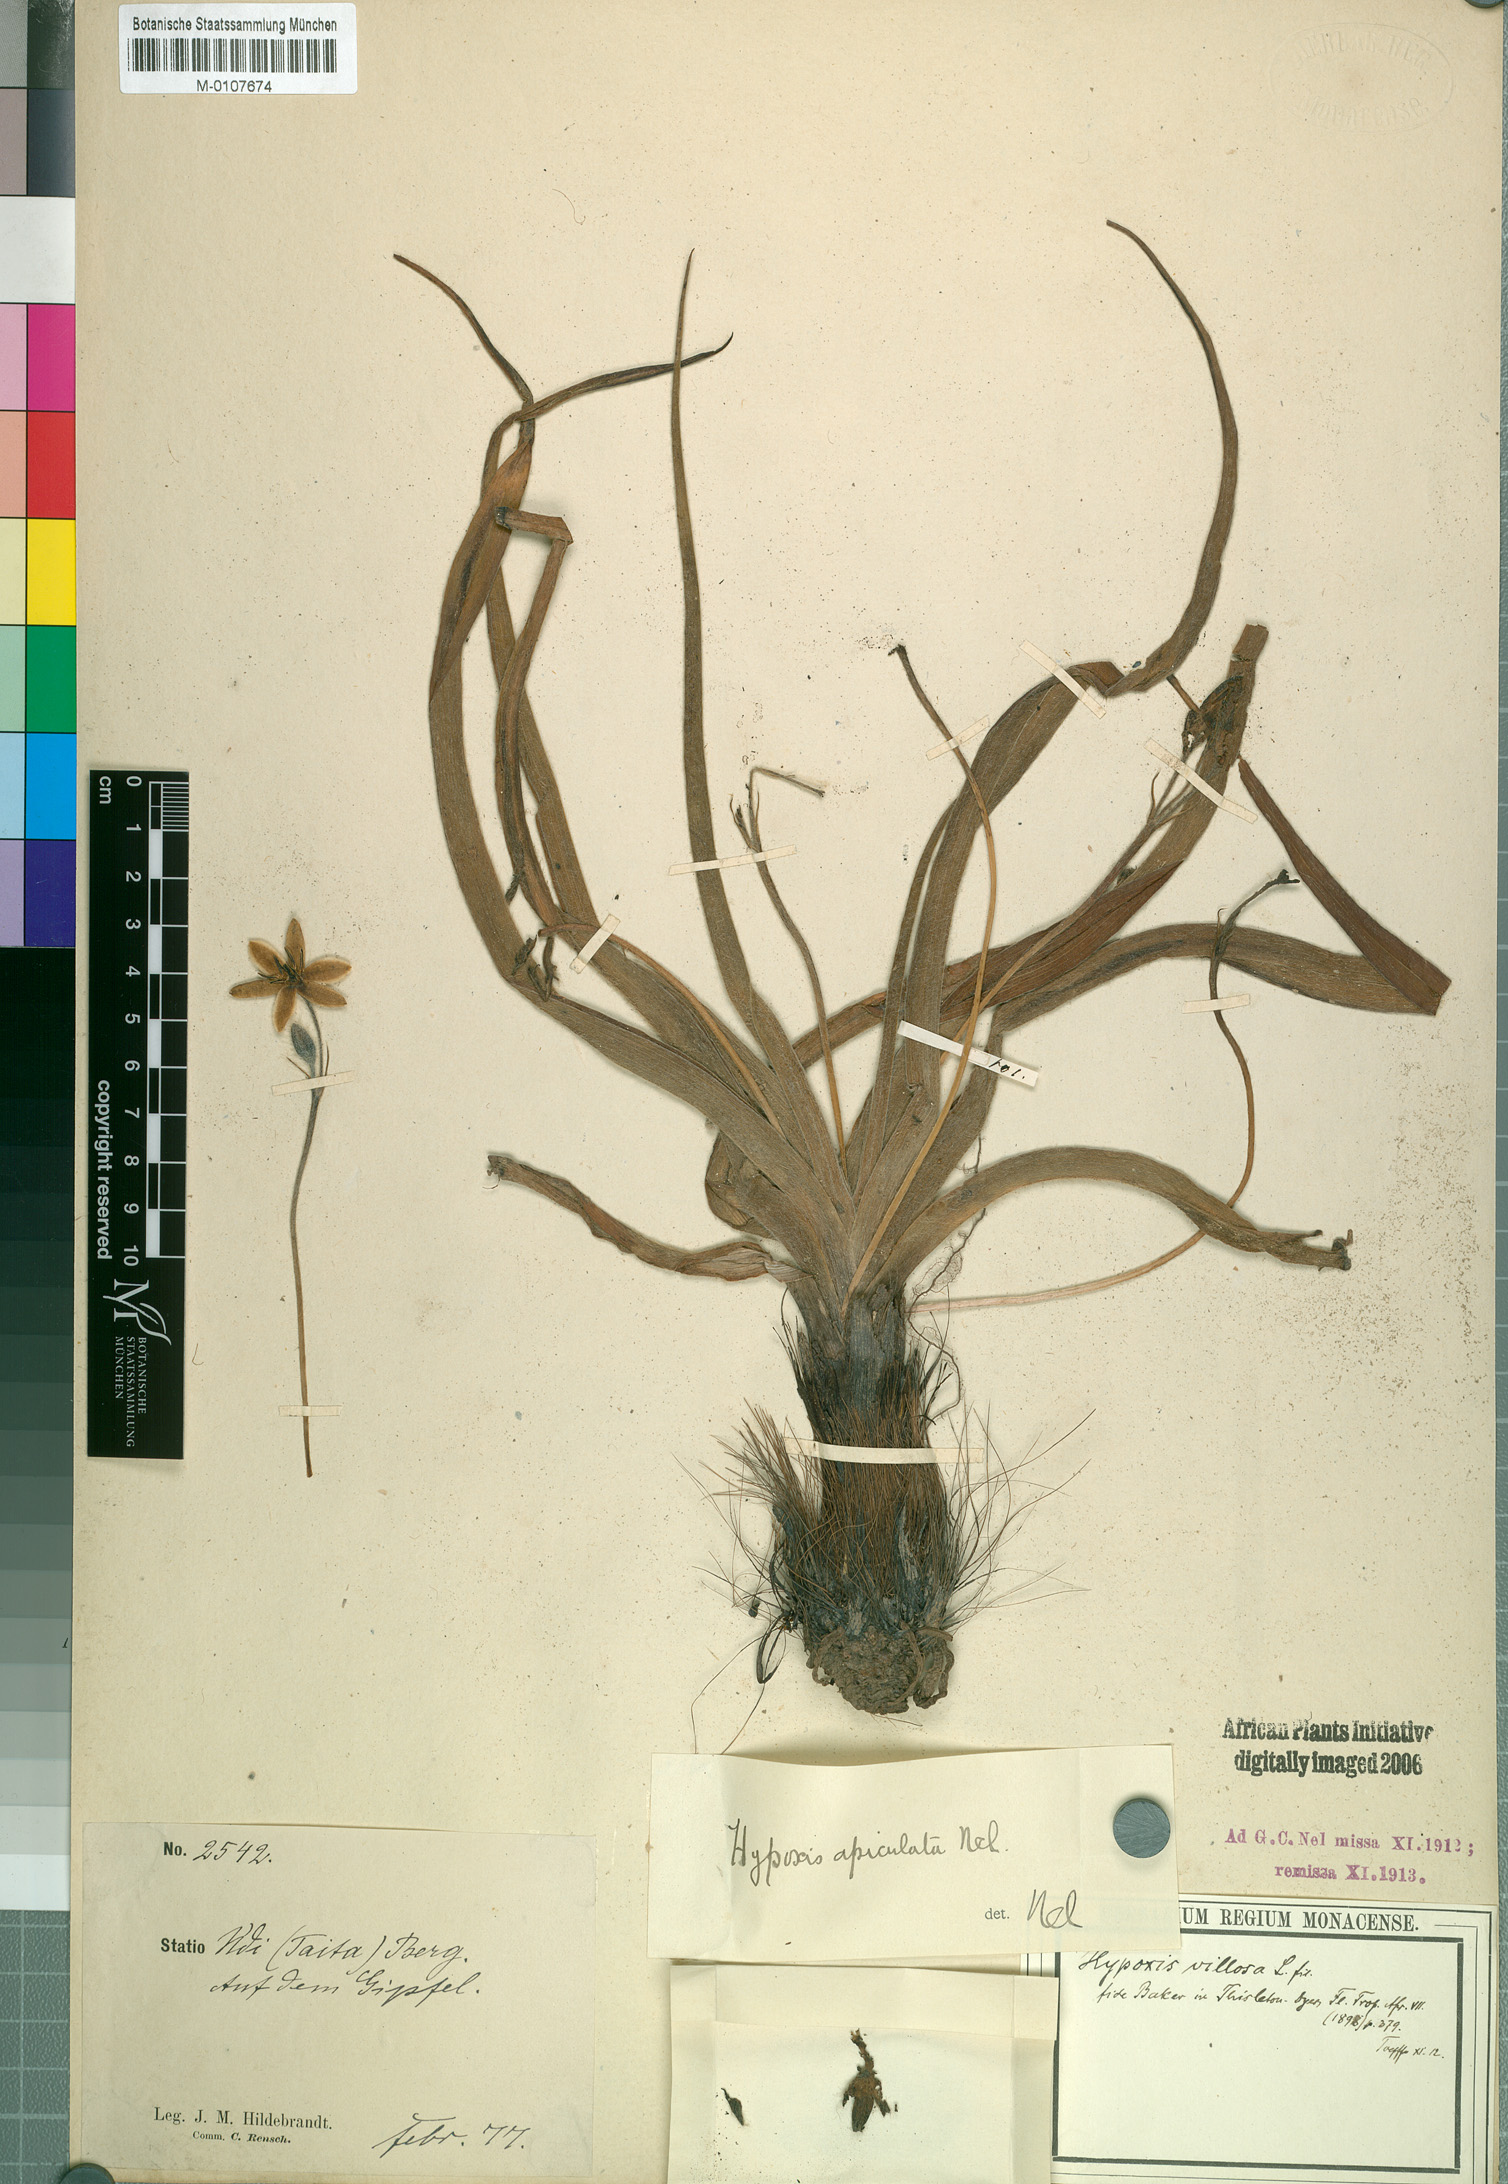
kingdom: Plantae
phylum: Tracheophyta
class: Liliopsida
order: Asparagales
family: Hypoxidaceae
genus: Hypoxis
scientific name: Hypoxis urceolata
